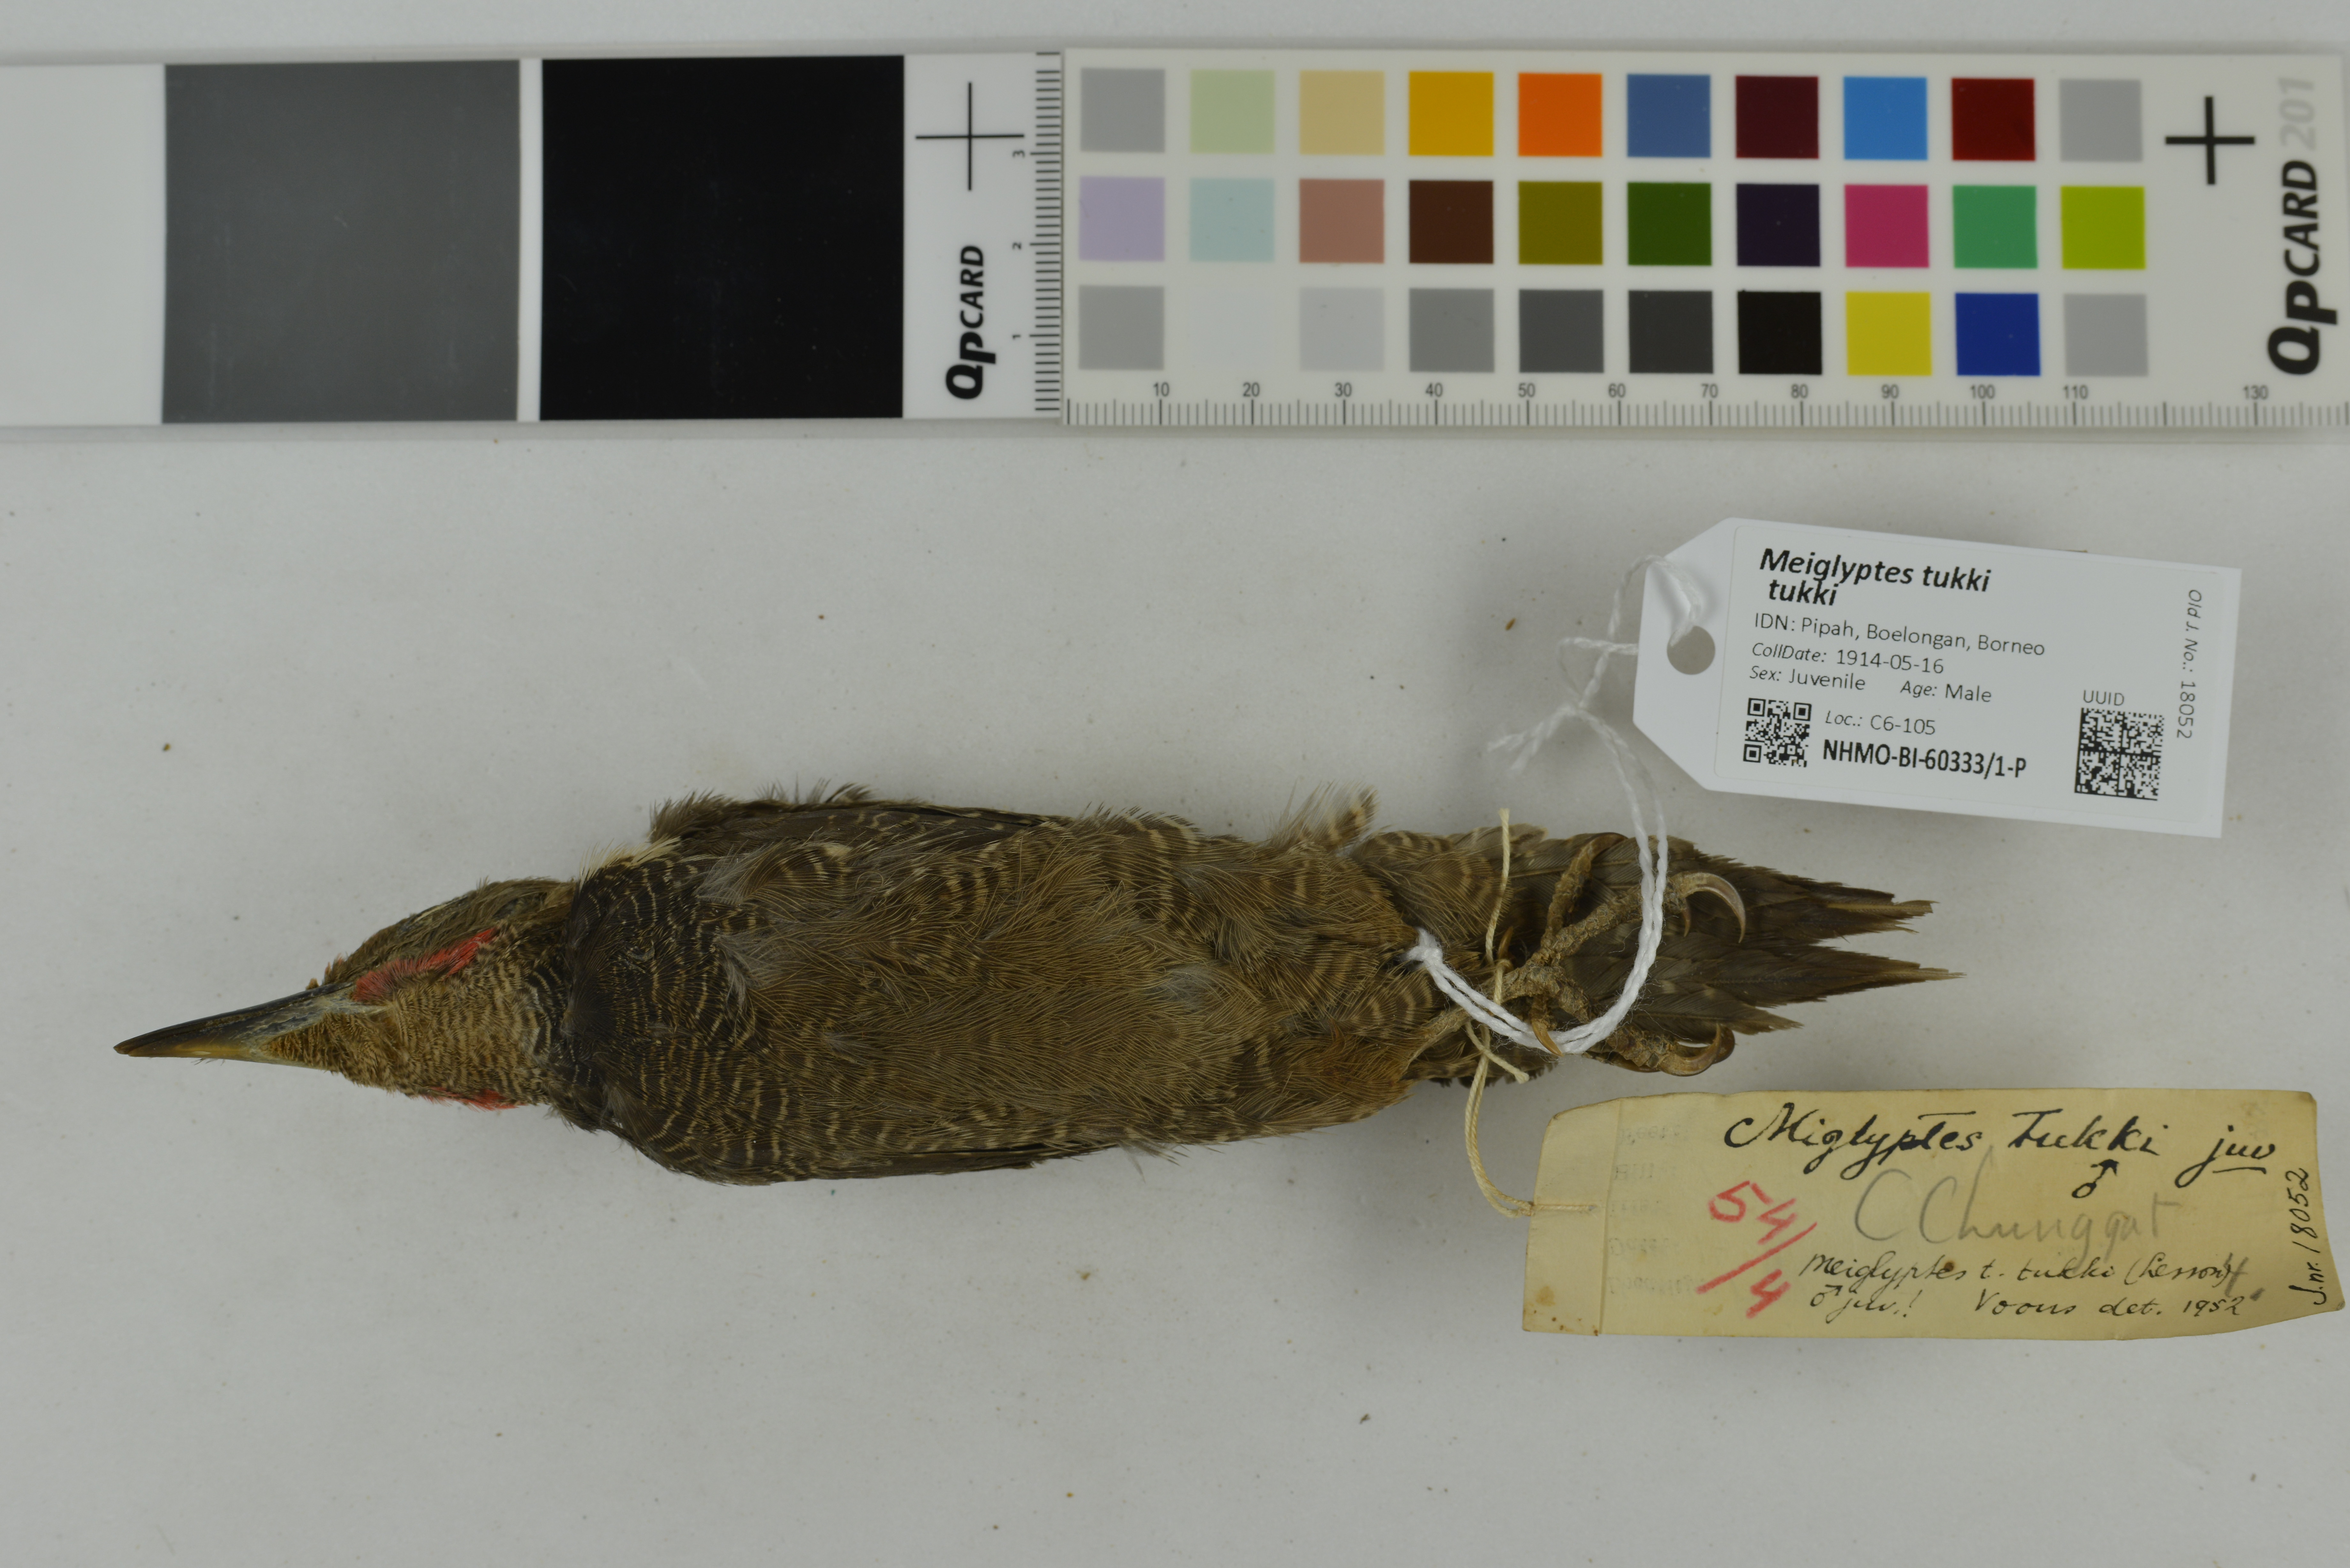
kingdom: Animalia
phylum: Chordata
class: Aves
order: Piciformes
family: Picidae
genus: Meiglyptes
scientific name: Meiglyptes tukki
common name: Buff-necked woodpecker
